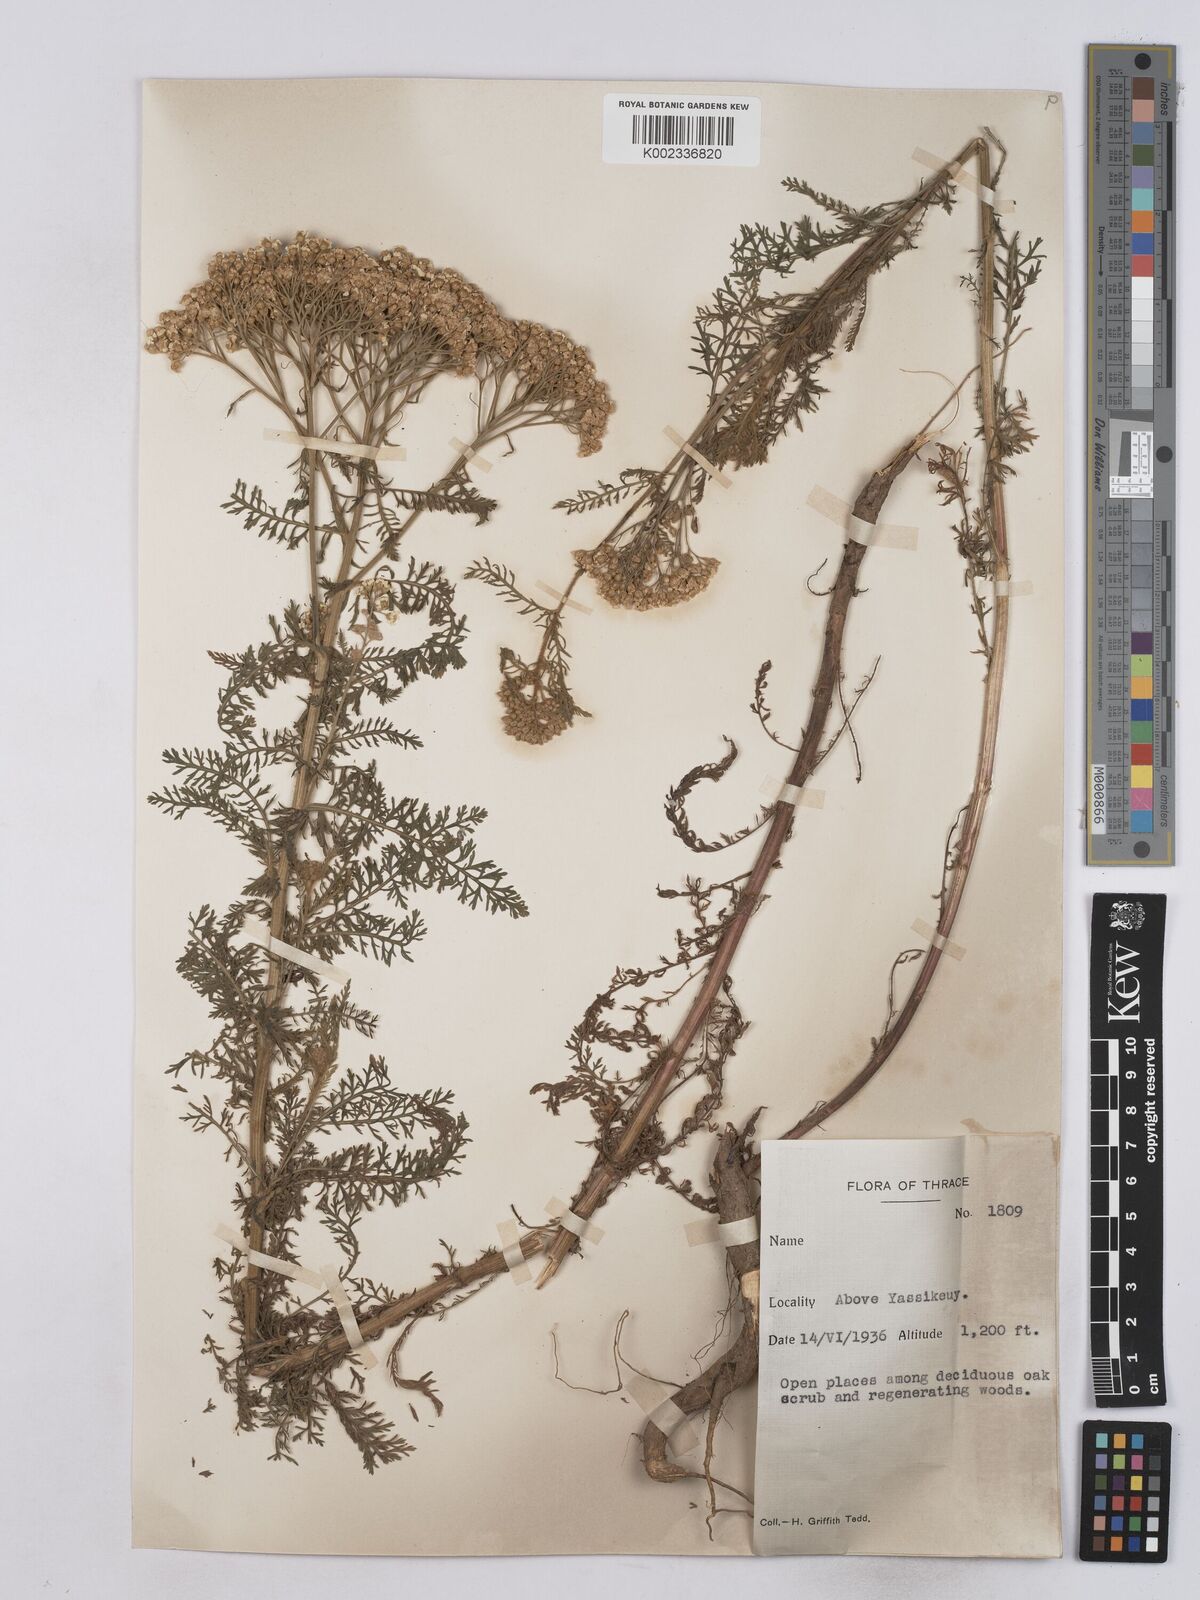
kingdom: Plantae
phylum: Tracheophyta
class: Magnoliopsida
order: Asterales
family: Asteraceae
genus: Achillea
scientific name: Achillea crithmifolia
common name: Yarrow
